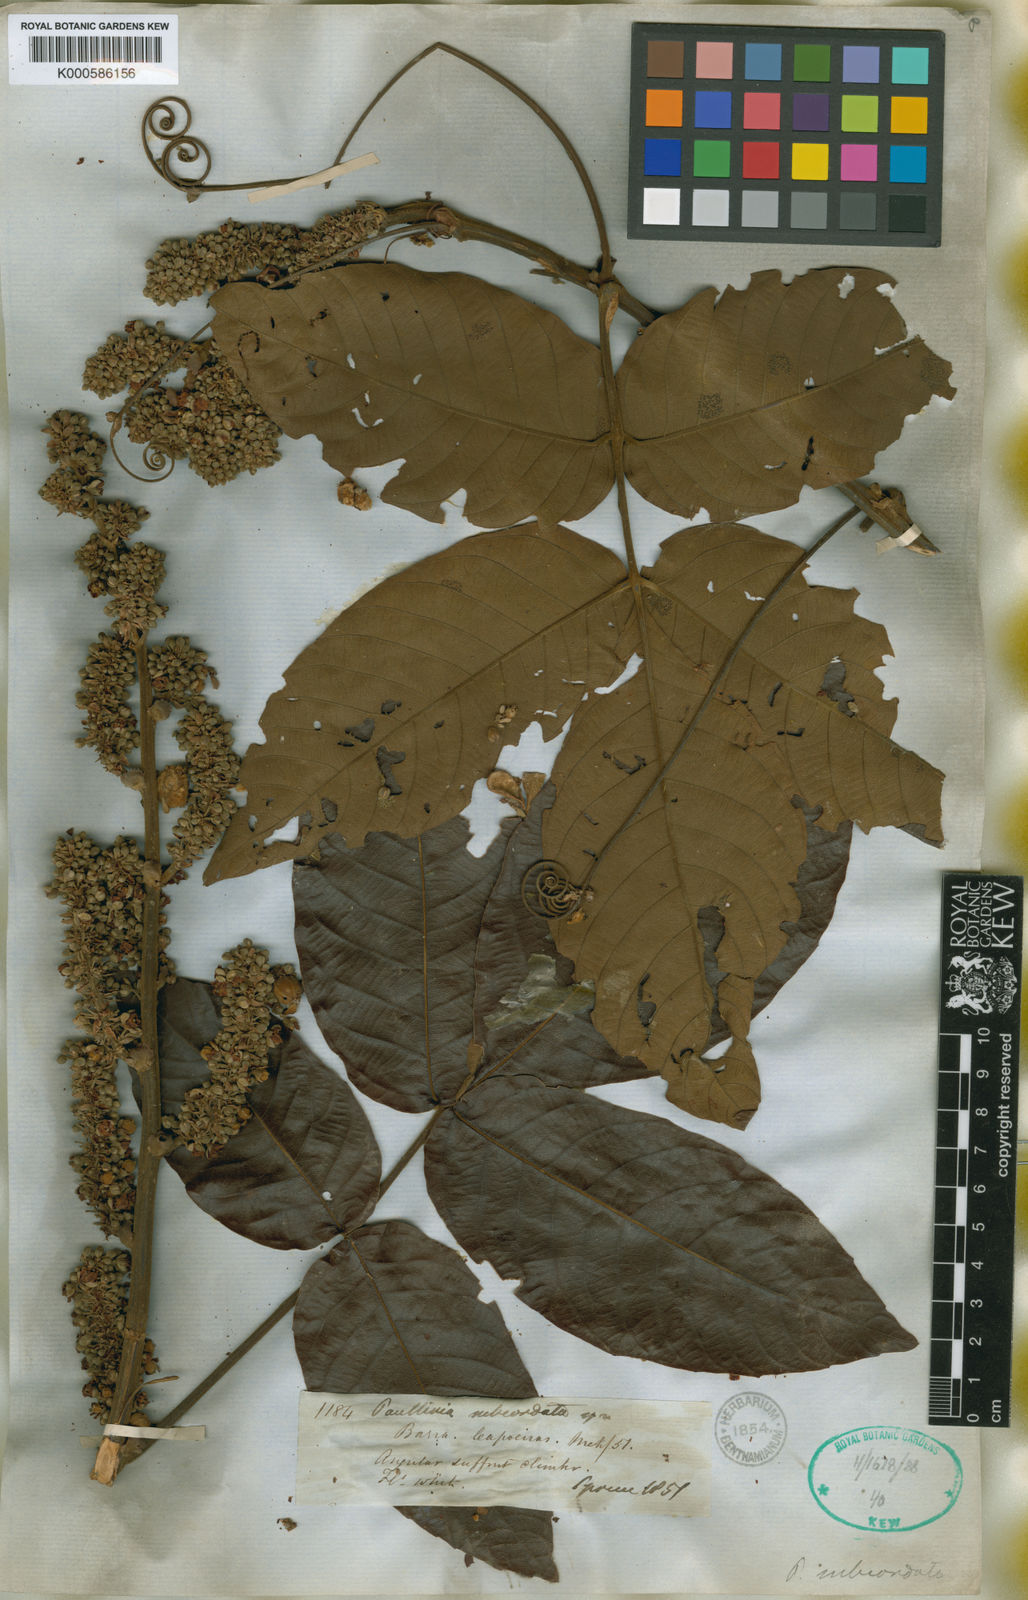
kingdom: Plantae
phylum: Tracheophyta
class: Magnoliopsida
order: Sapindales
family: Sapindaceae
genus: Paullinia
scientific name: Paullinia rugosa
